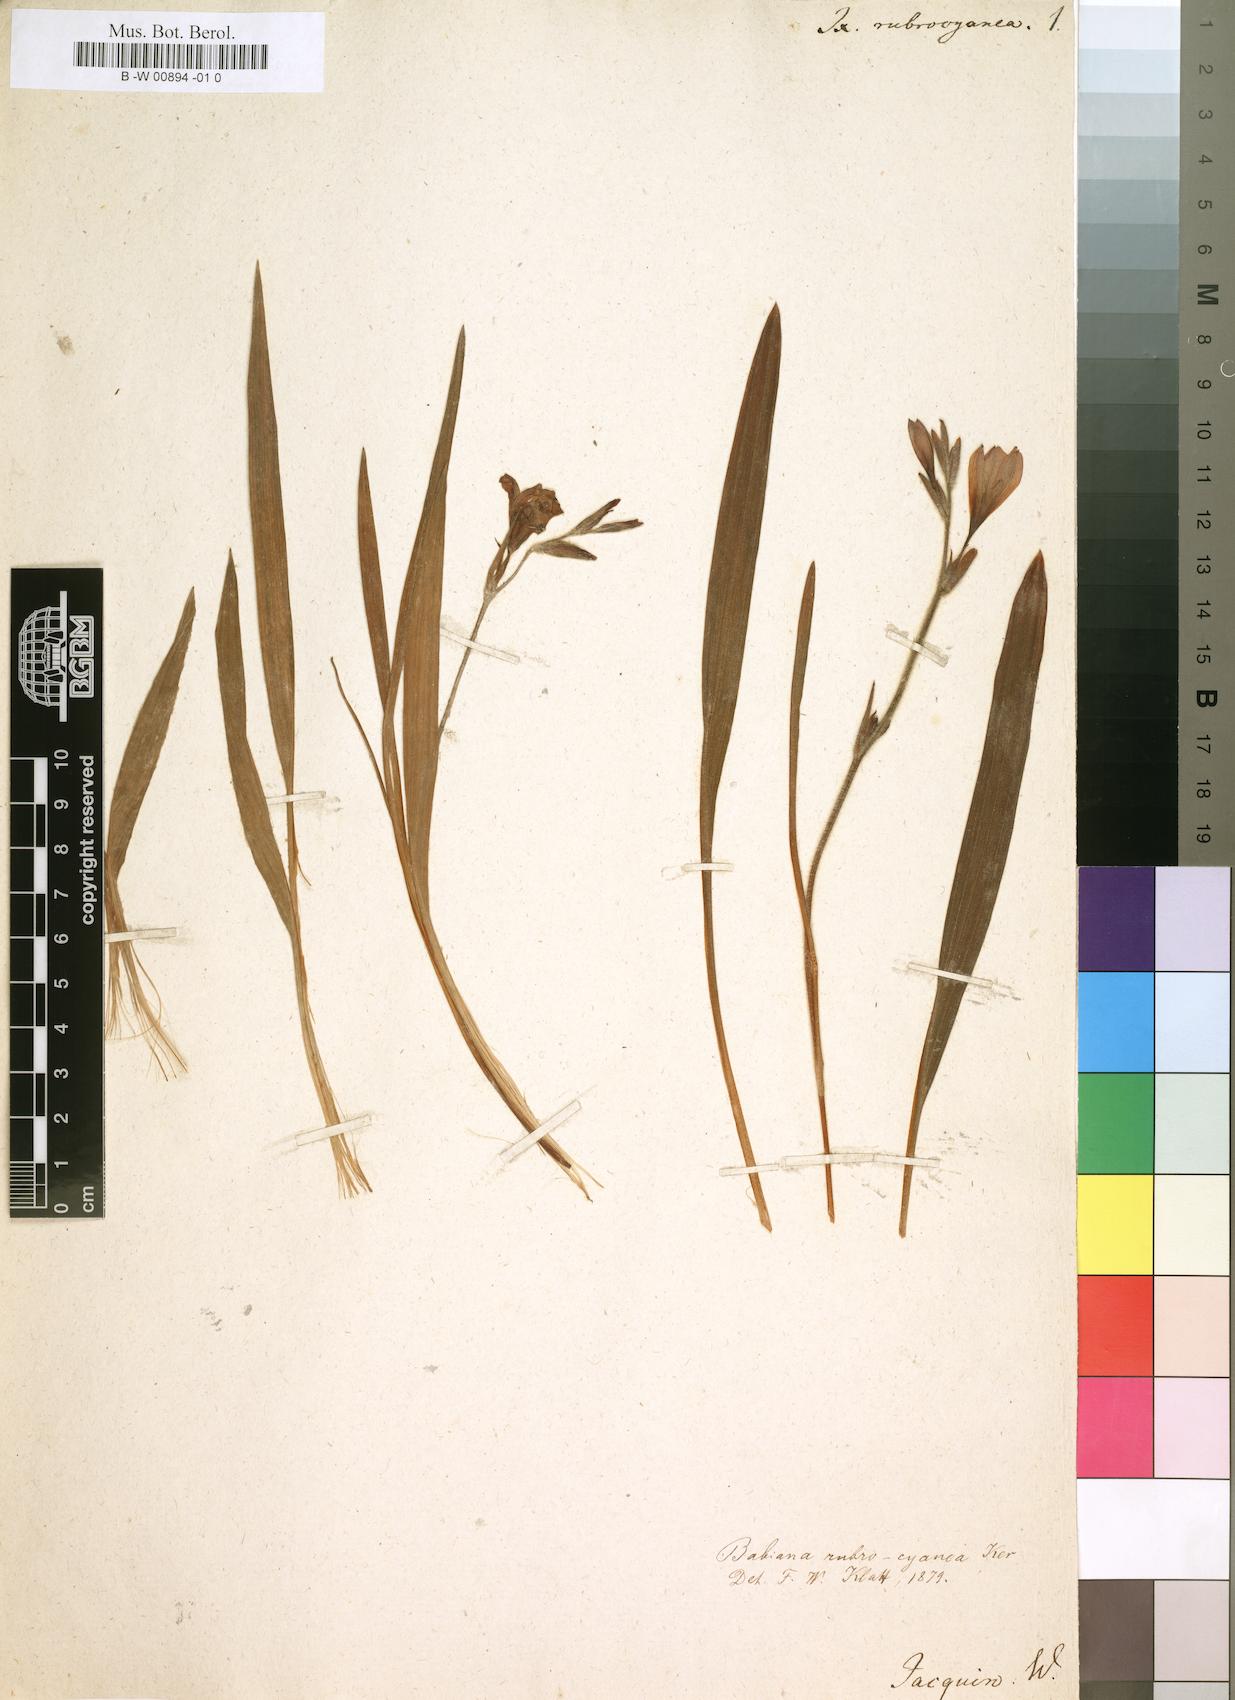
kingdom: Plantae
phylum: Tracheophyta
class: Liliopsida
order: Asparagales
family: Iridaceae
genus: Babiana
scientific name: Babiana rubrocyanea
